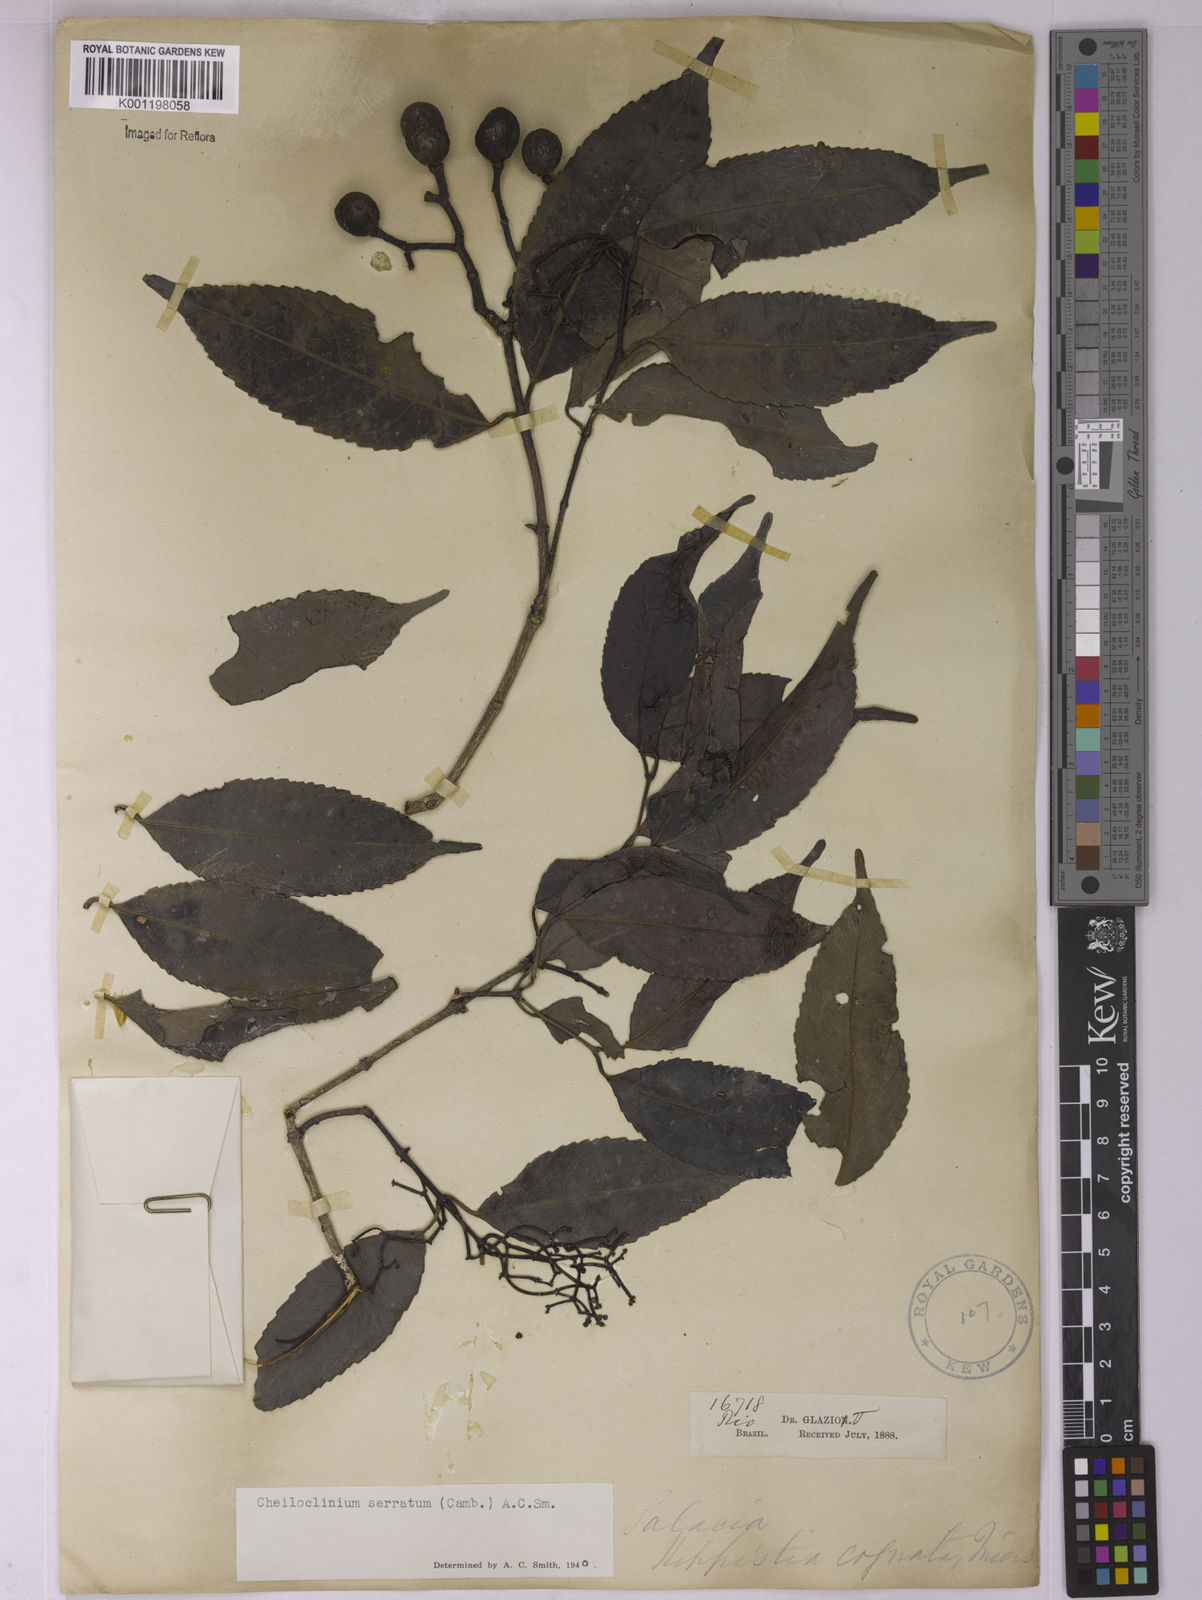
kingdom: Plantae
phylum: Tracheophyta
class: Magnoliopsida
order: Celastrales
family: Celastraceae
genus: Cheiloclinium
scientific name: Cheiloclinium serratum
